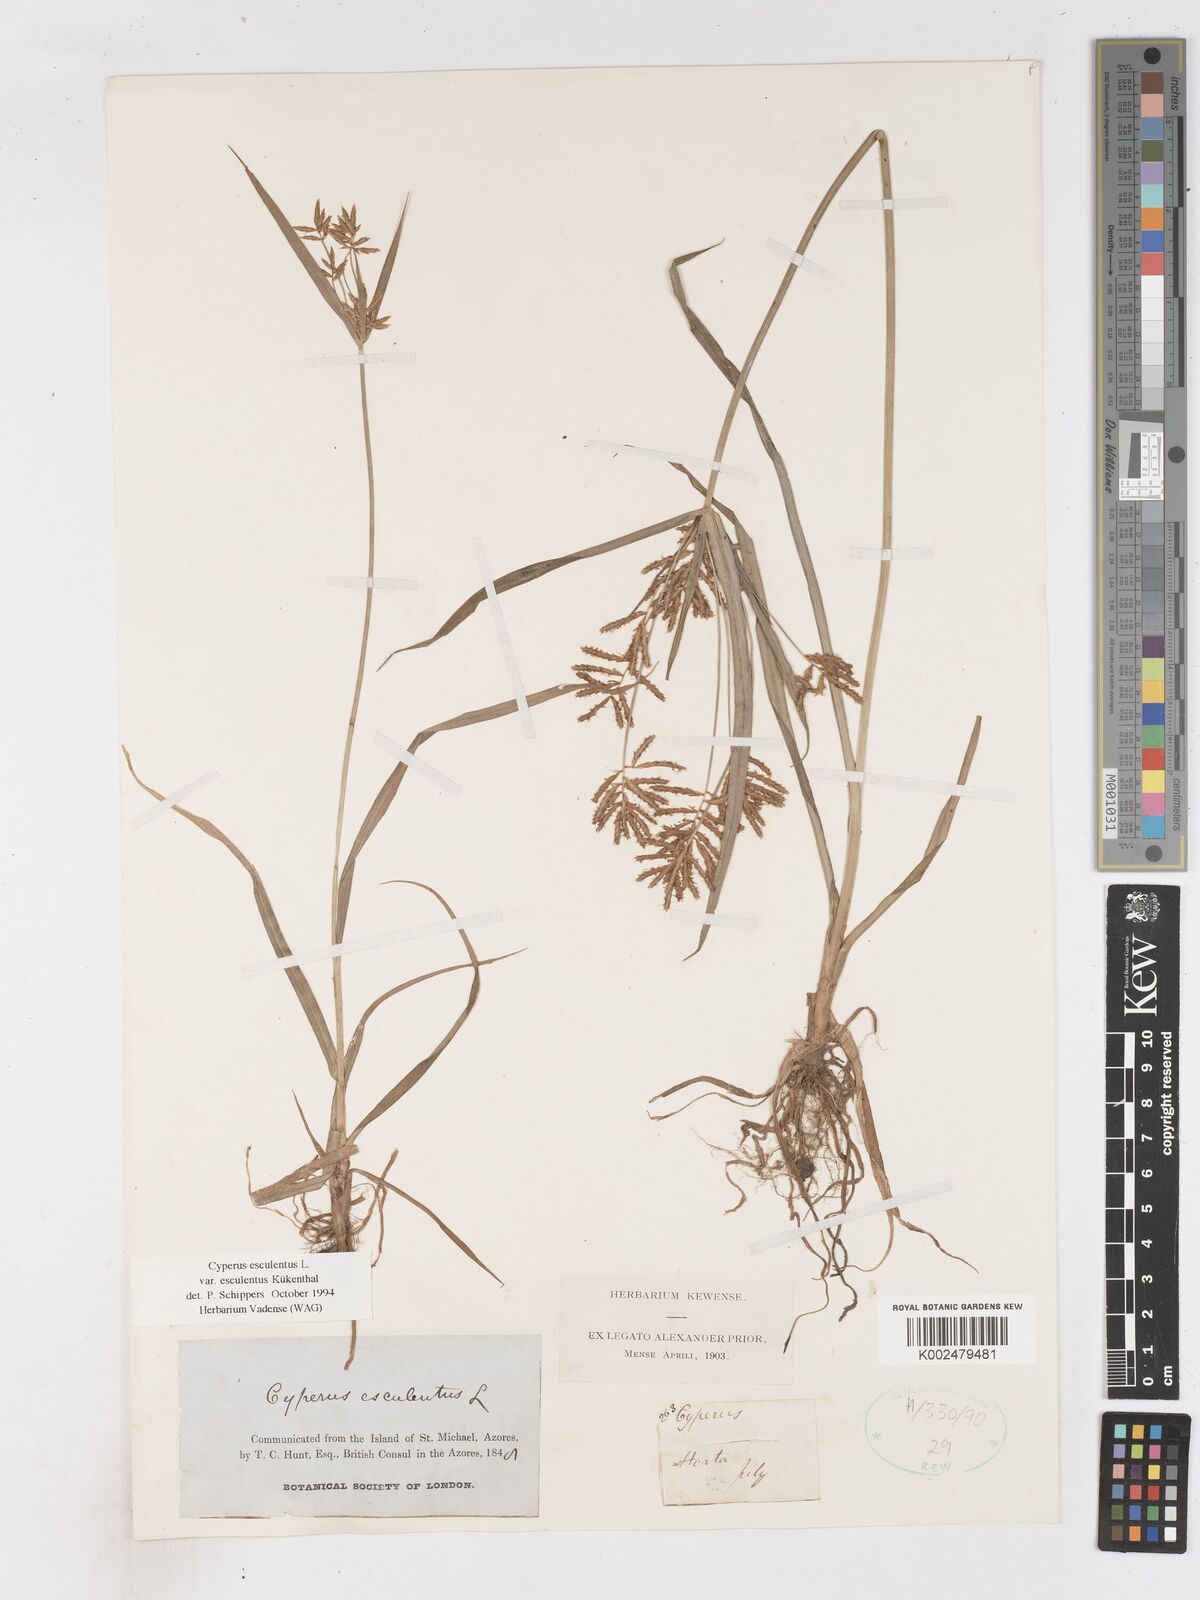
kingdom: Plantae
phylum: Tracheophyta
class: Liliopsida
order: Poales
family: Cyperaceae
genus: Cyperus
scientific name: Cyperus esculentus
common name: Yellow nutsedge
